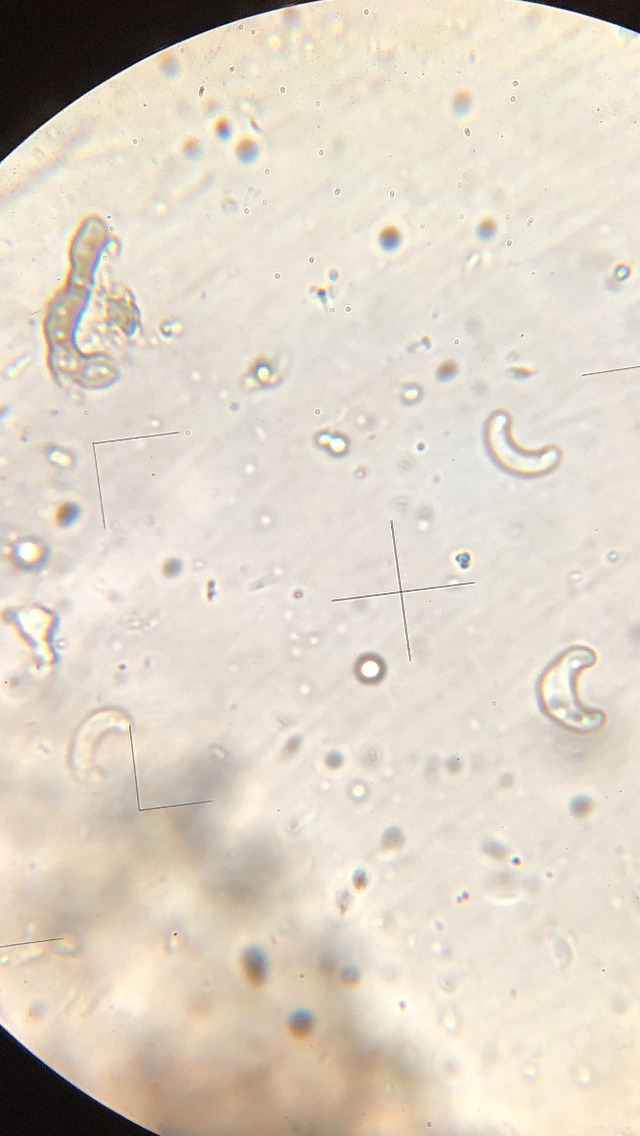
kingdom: Fungi
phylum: Ascomycota
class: Sordariomycetes
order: Xylariales
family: Diatrypaceae
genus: Diatrypella
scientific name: Diatrypella quercina
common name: ege-kulskorpe
